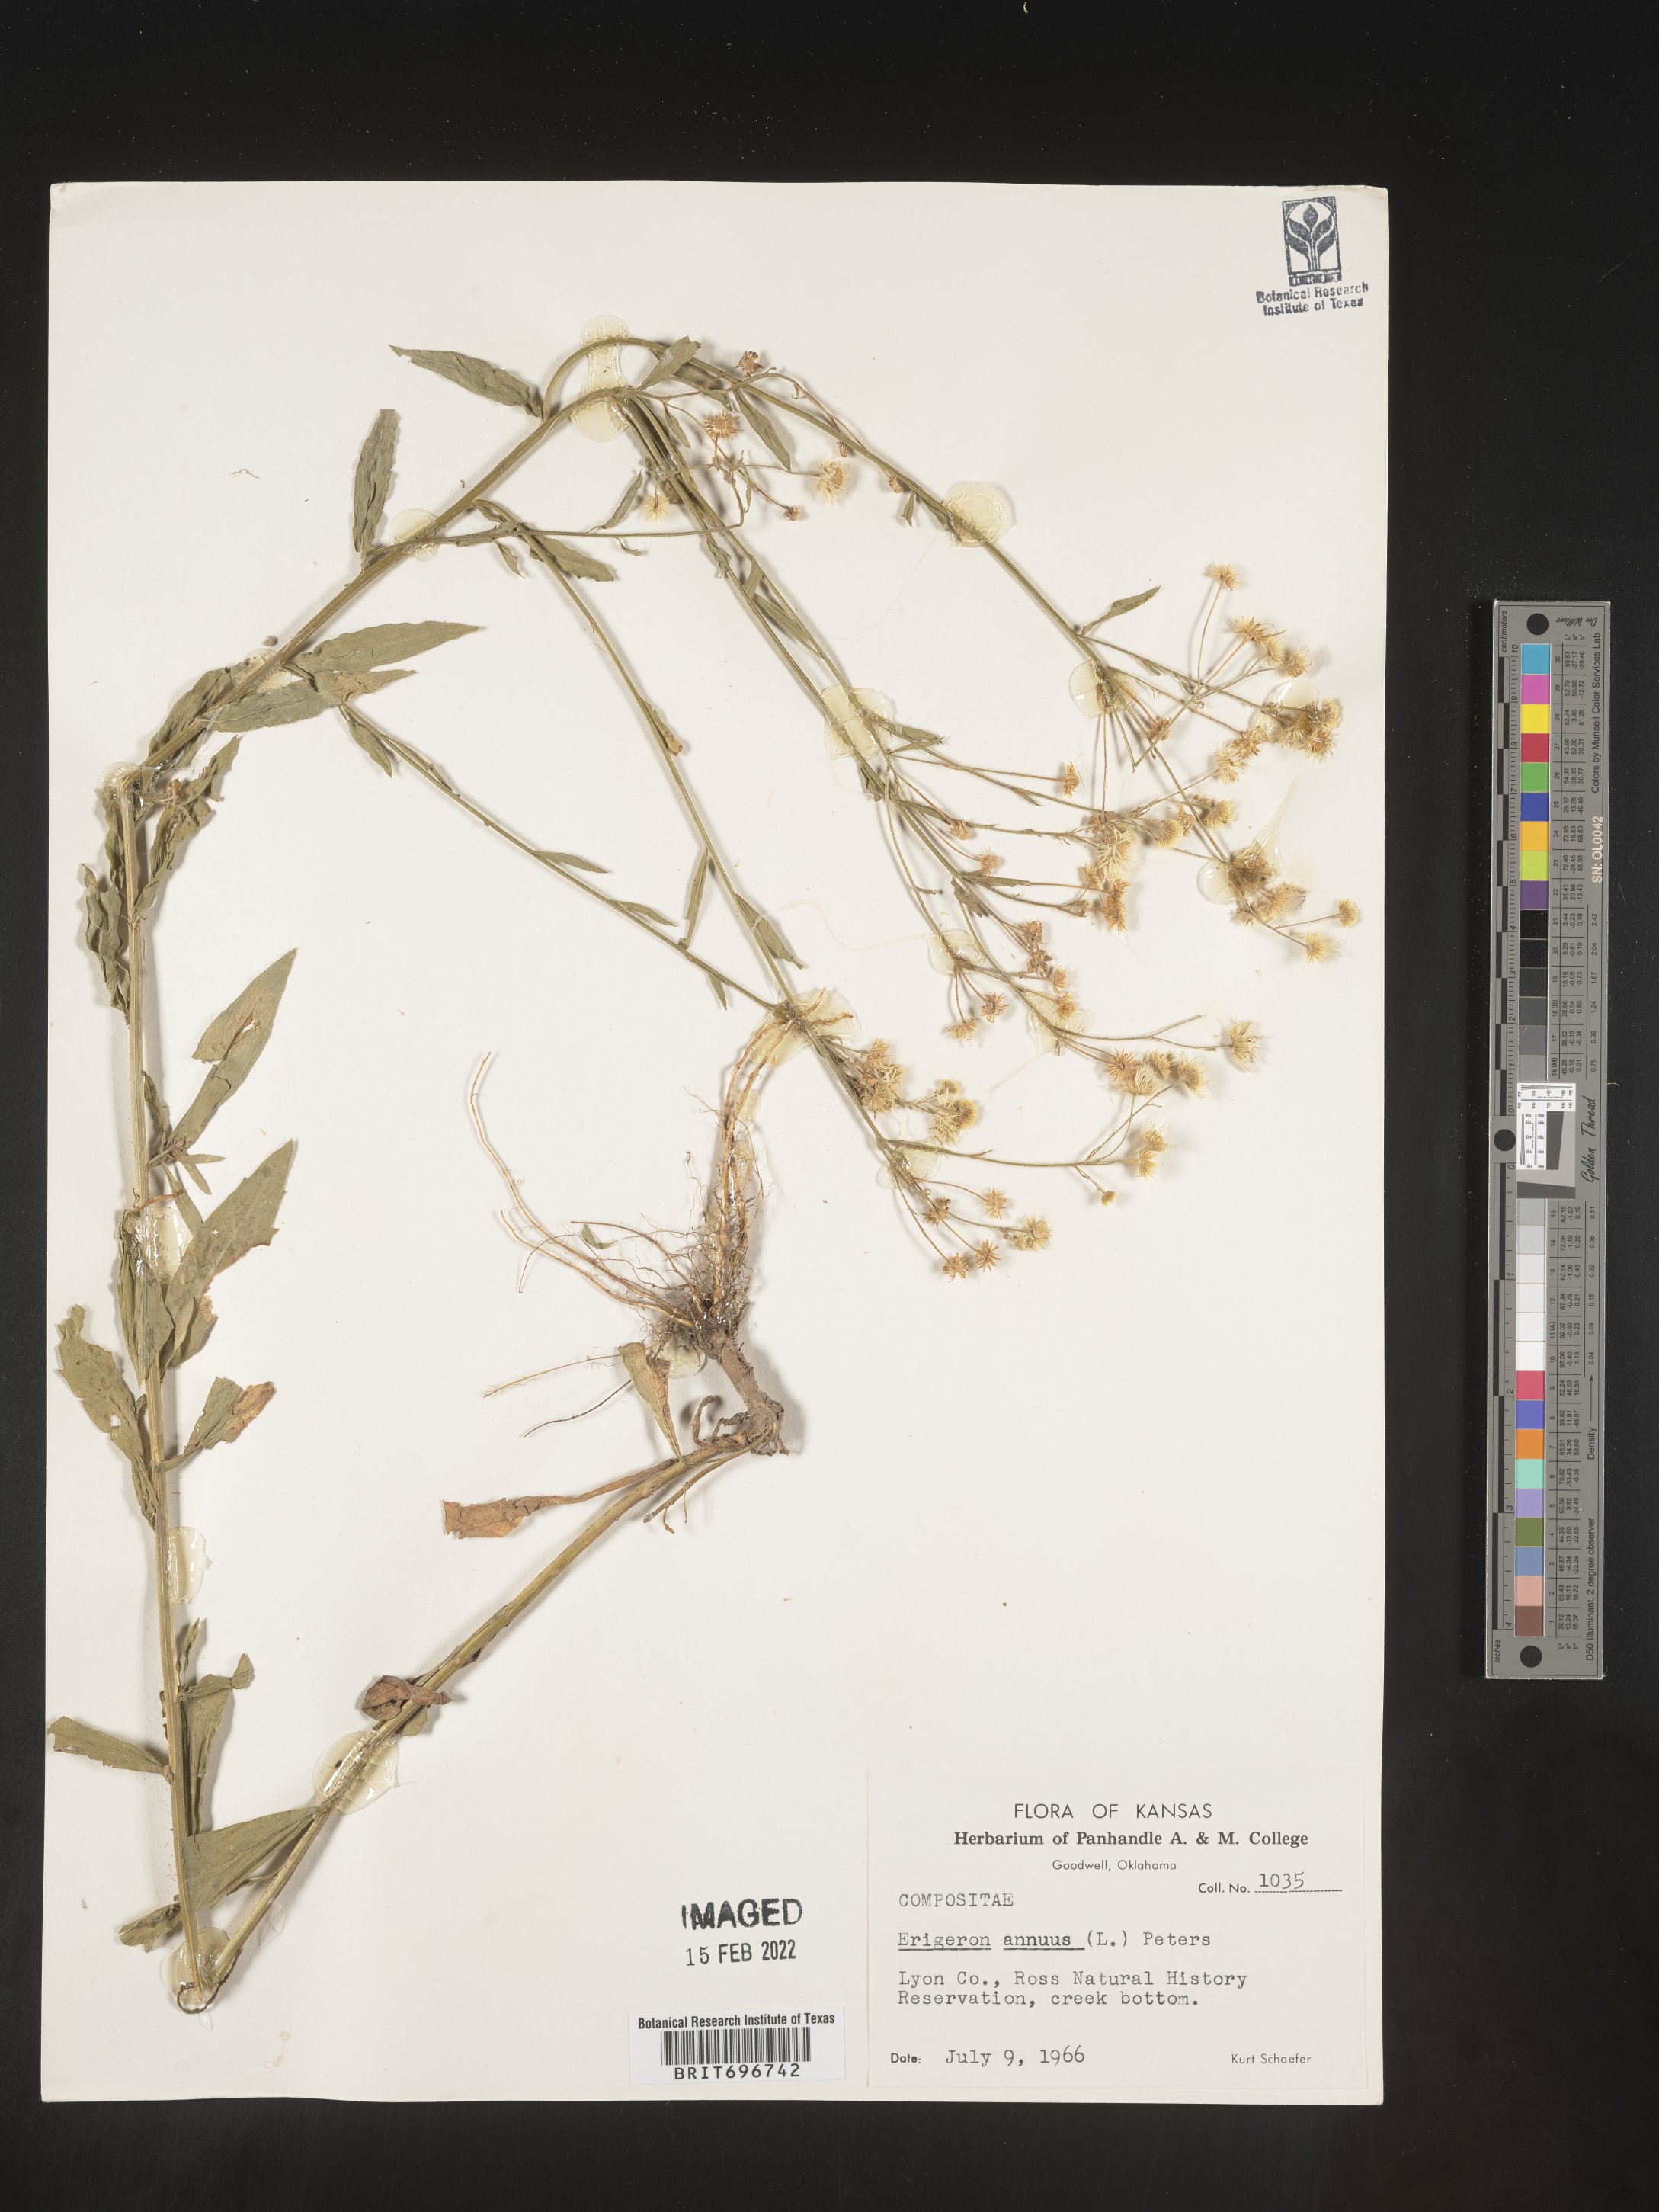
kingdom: Plantae
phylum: Tracheophyta
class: Magnoliopsida
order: Asterales
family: Asteraceae
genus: Erigeron
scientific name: Erigeron annuus
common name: Tall fleabane
